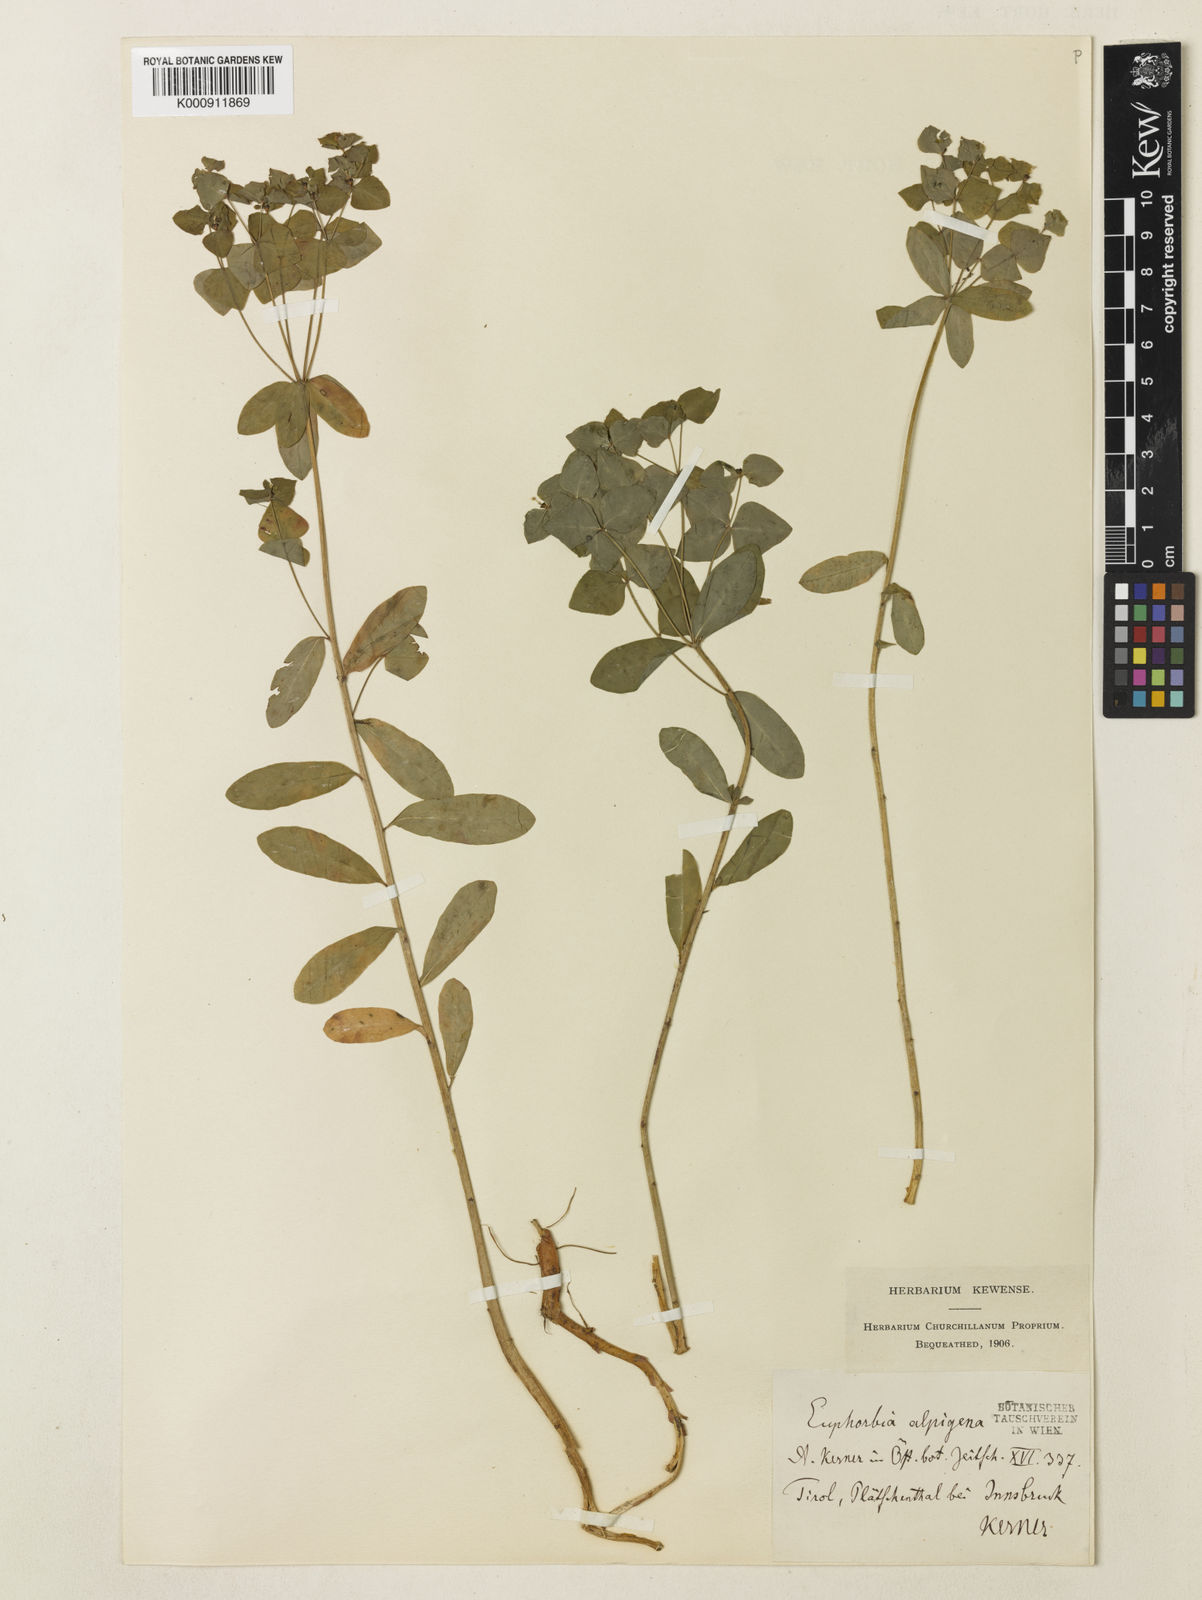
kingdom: Plantae
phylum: Tracheophyta
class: Magnoliopsida
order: Malpighiales
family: Euphorbiaceae
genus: Euphorbia
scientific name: Euphorbia
